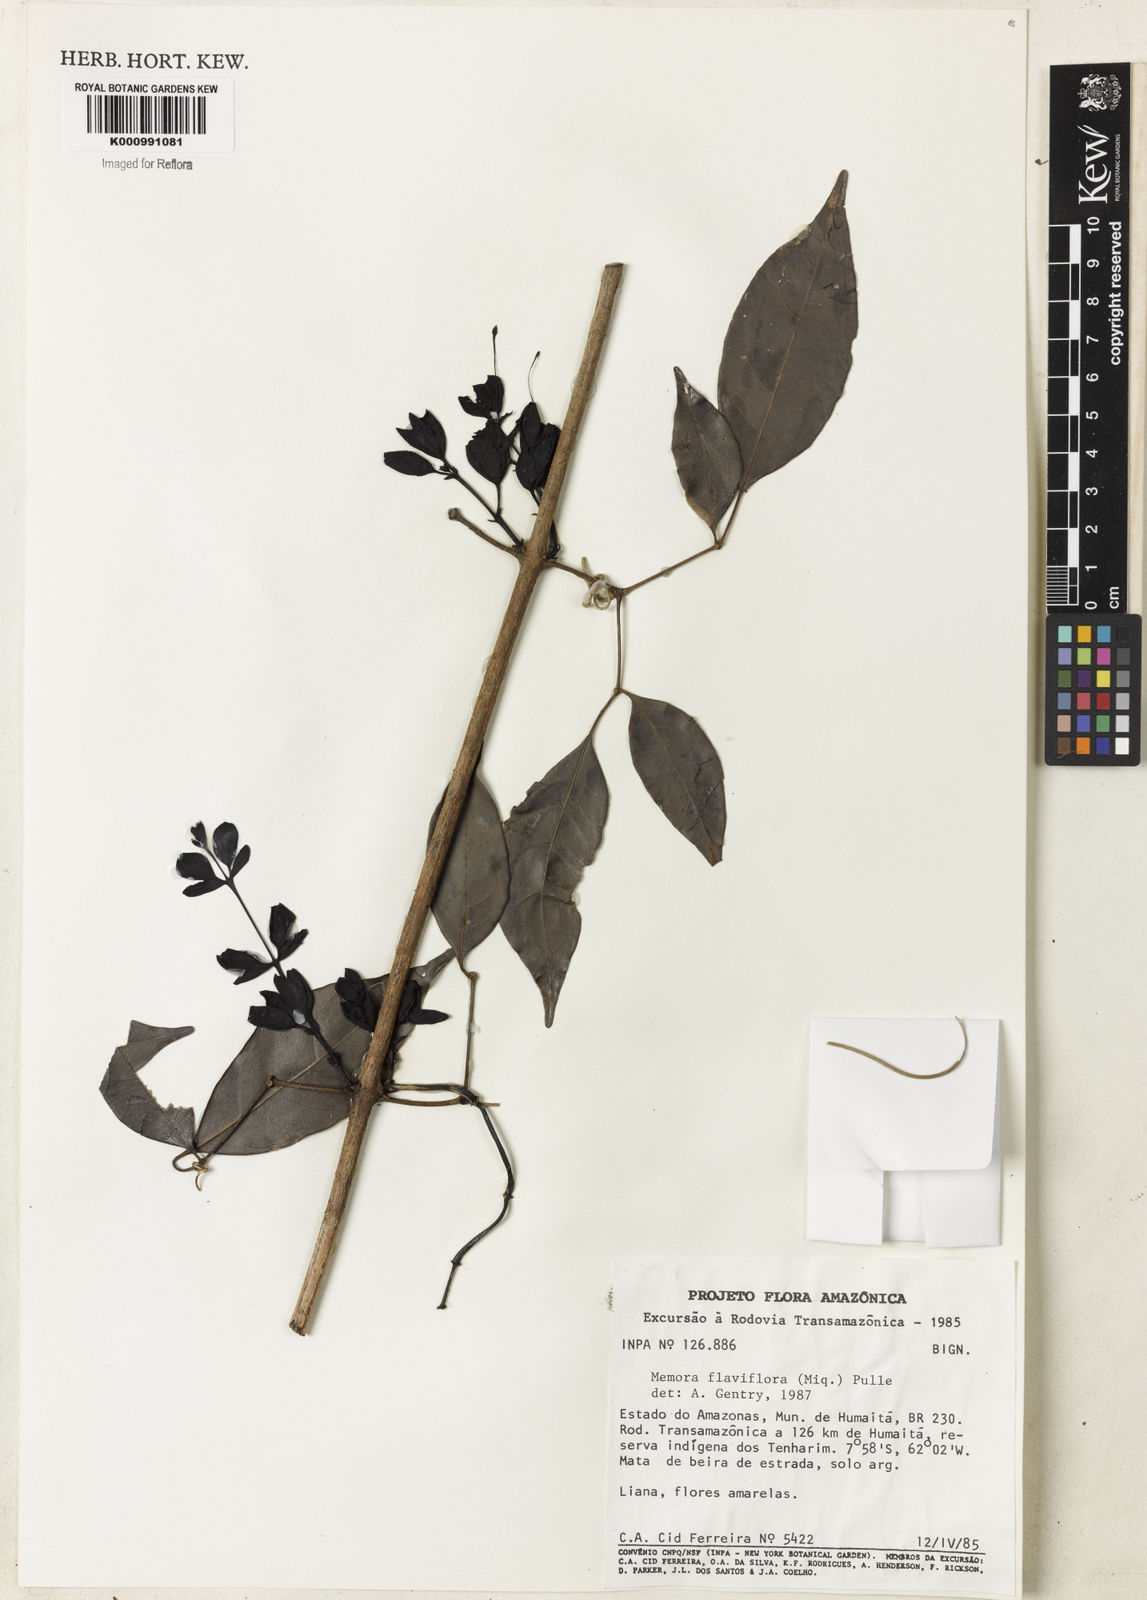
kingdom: Plantae
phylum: Tracheophyta
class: Magnoliopsida
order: Lamiales
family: Bignoniaceae
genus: Adenocalymma
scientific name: Adenocalymma flaviflorum
